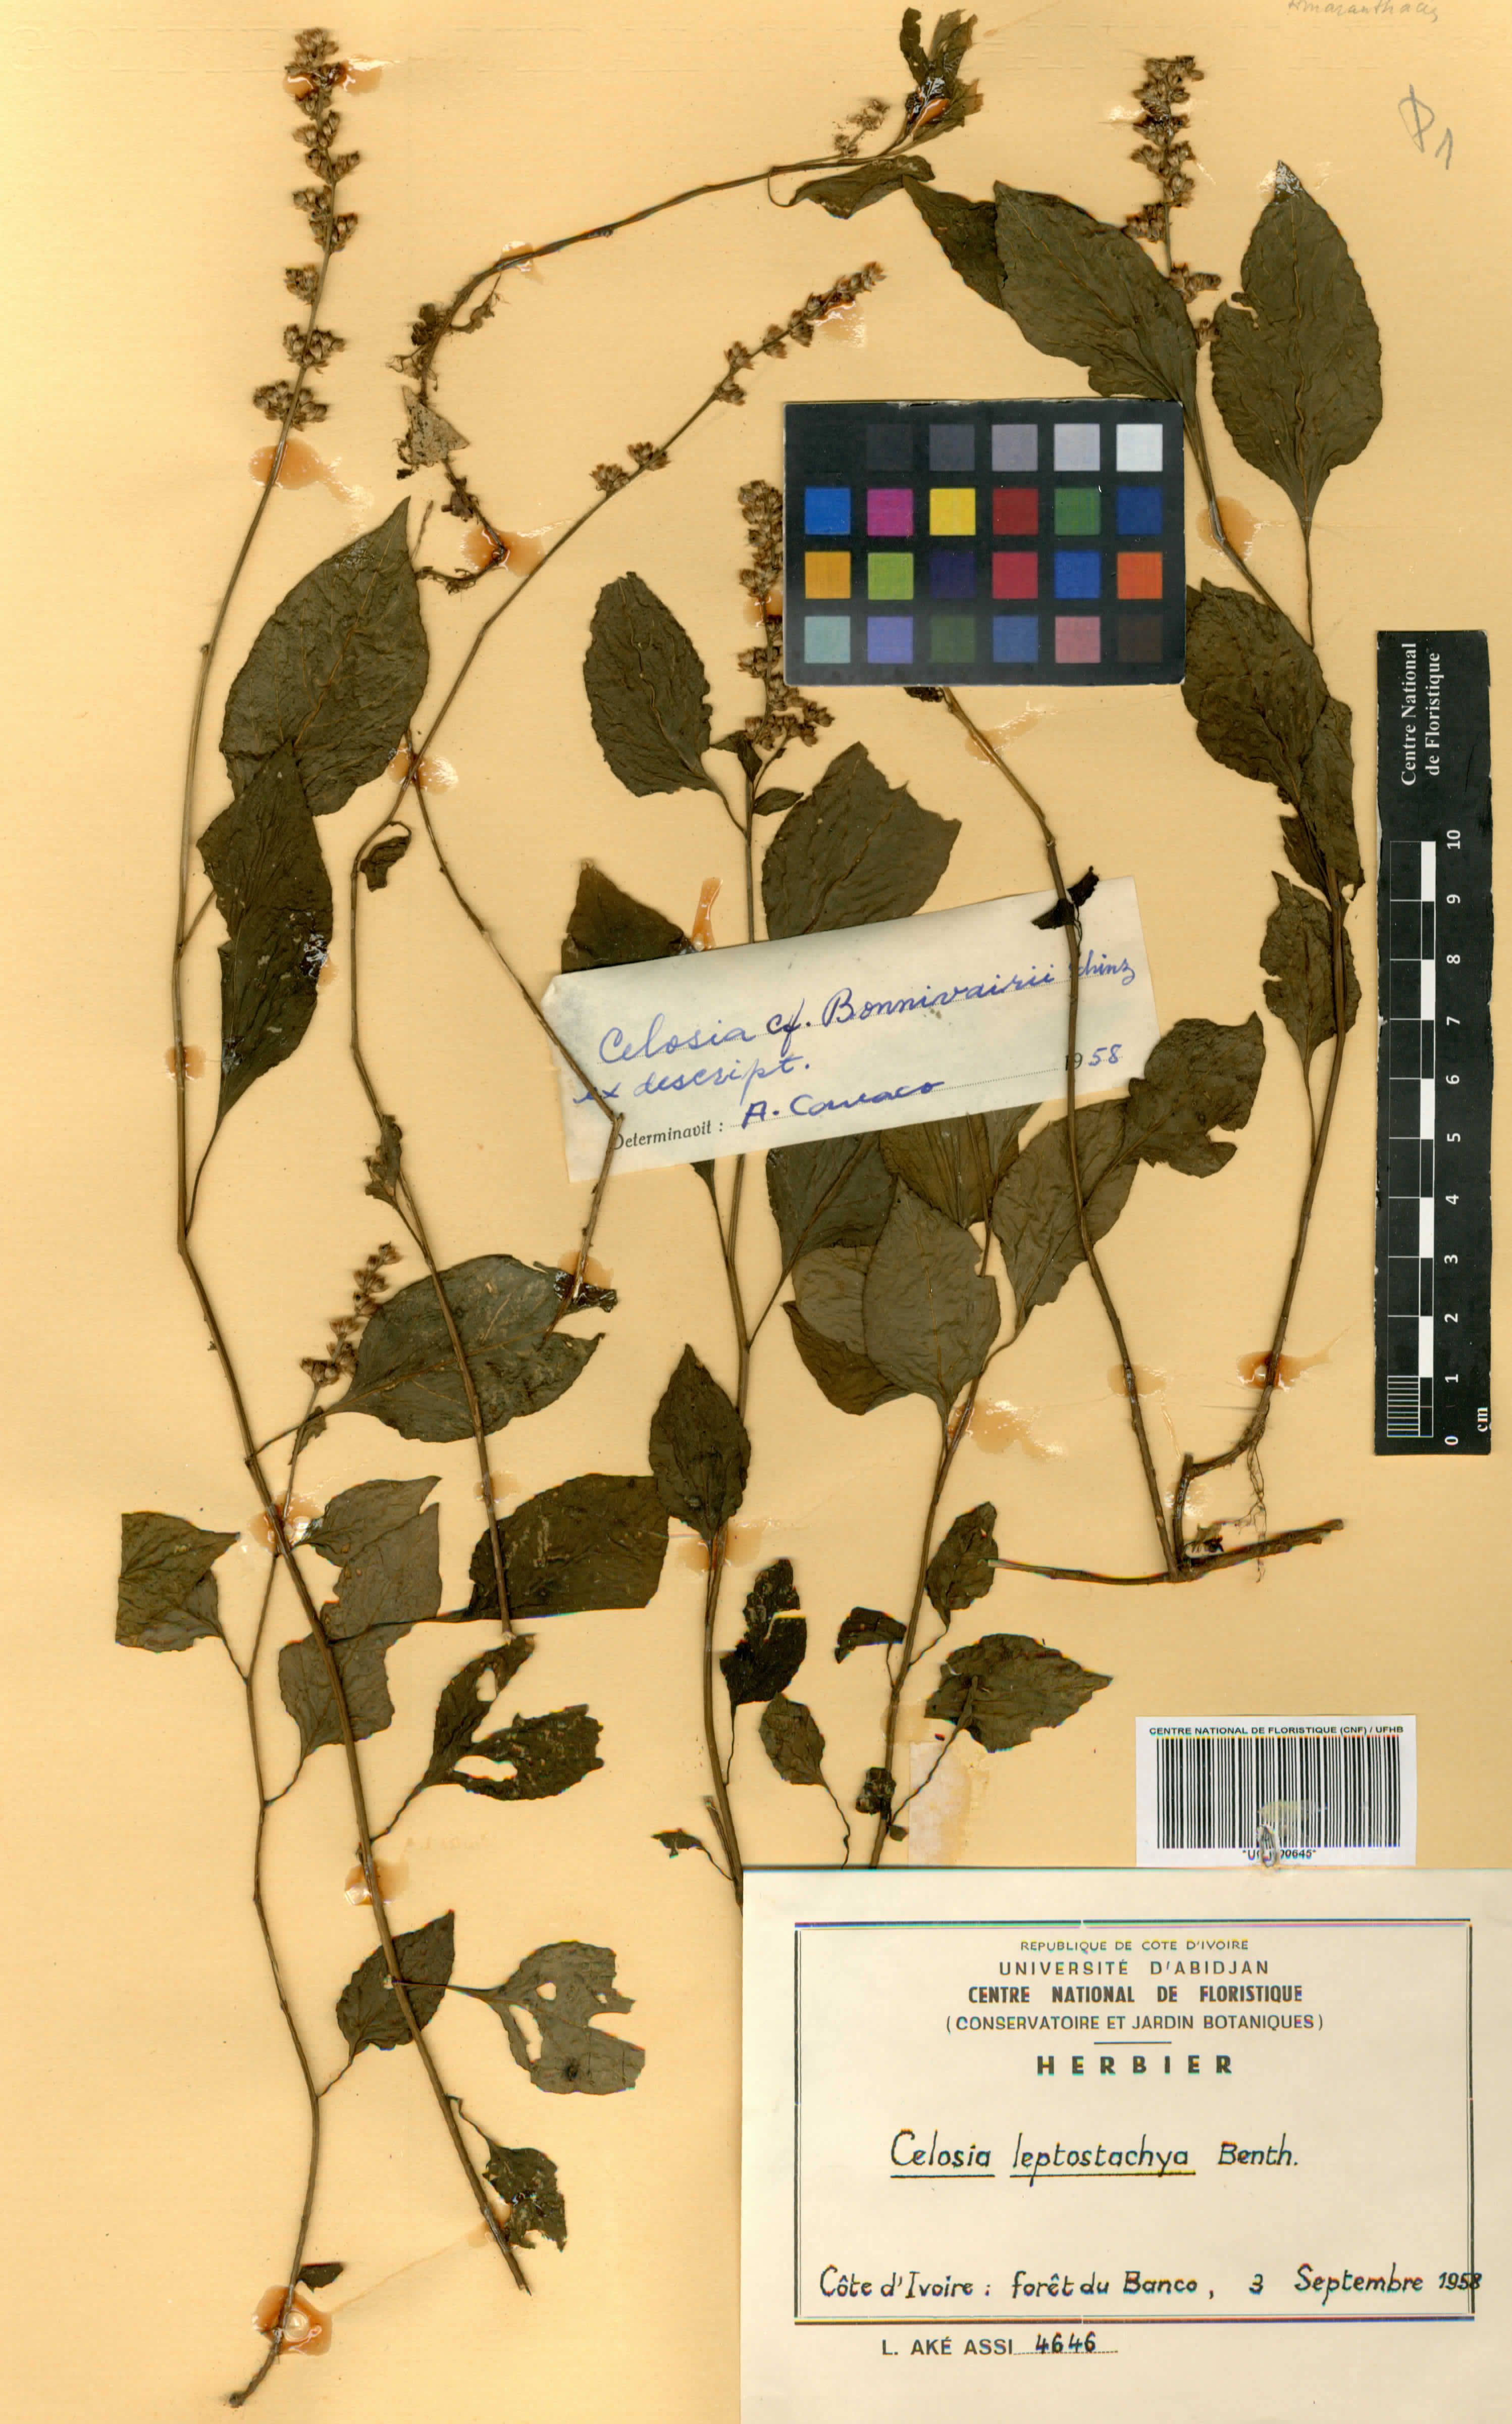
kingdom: Plantae
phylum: Tracheophyta
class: Magnoliopsida
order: Caryophyllales
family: Amaranthaceae
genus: Celosia
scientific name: Celosia leptostachya
